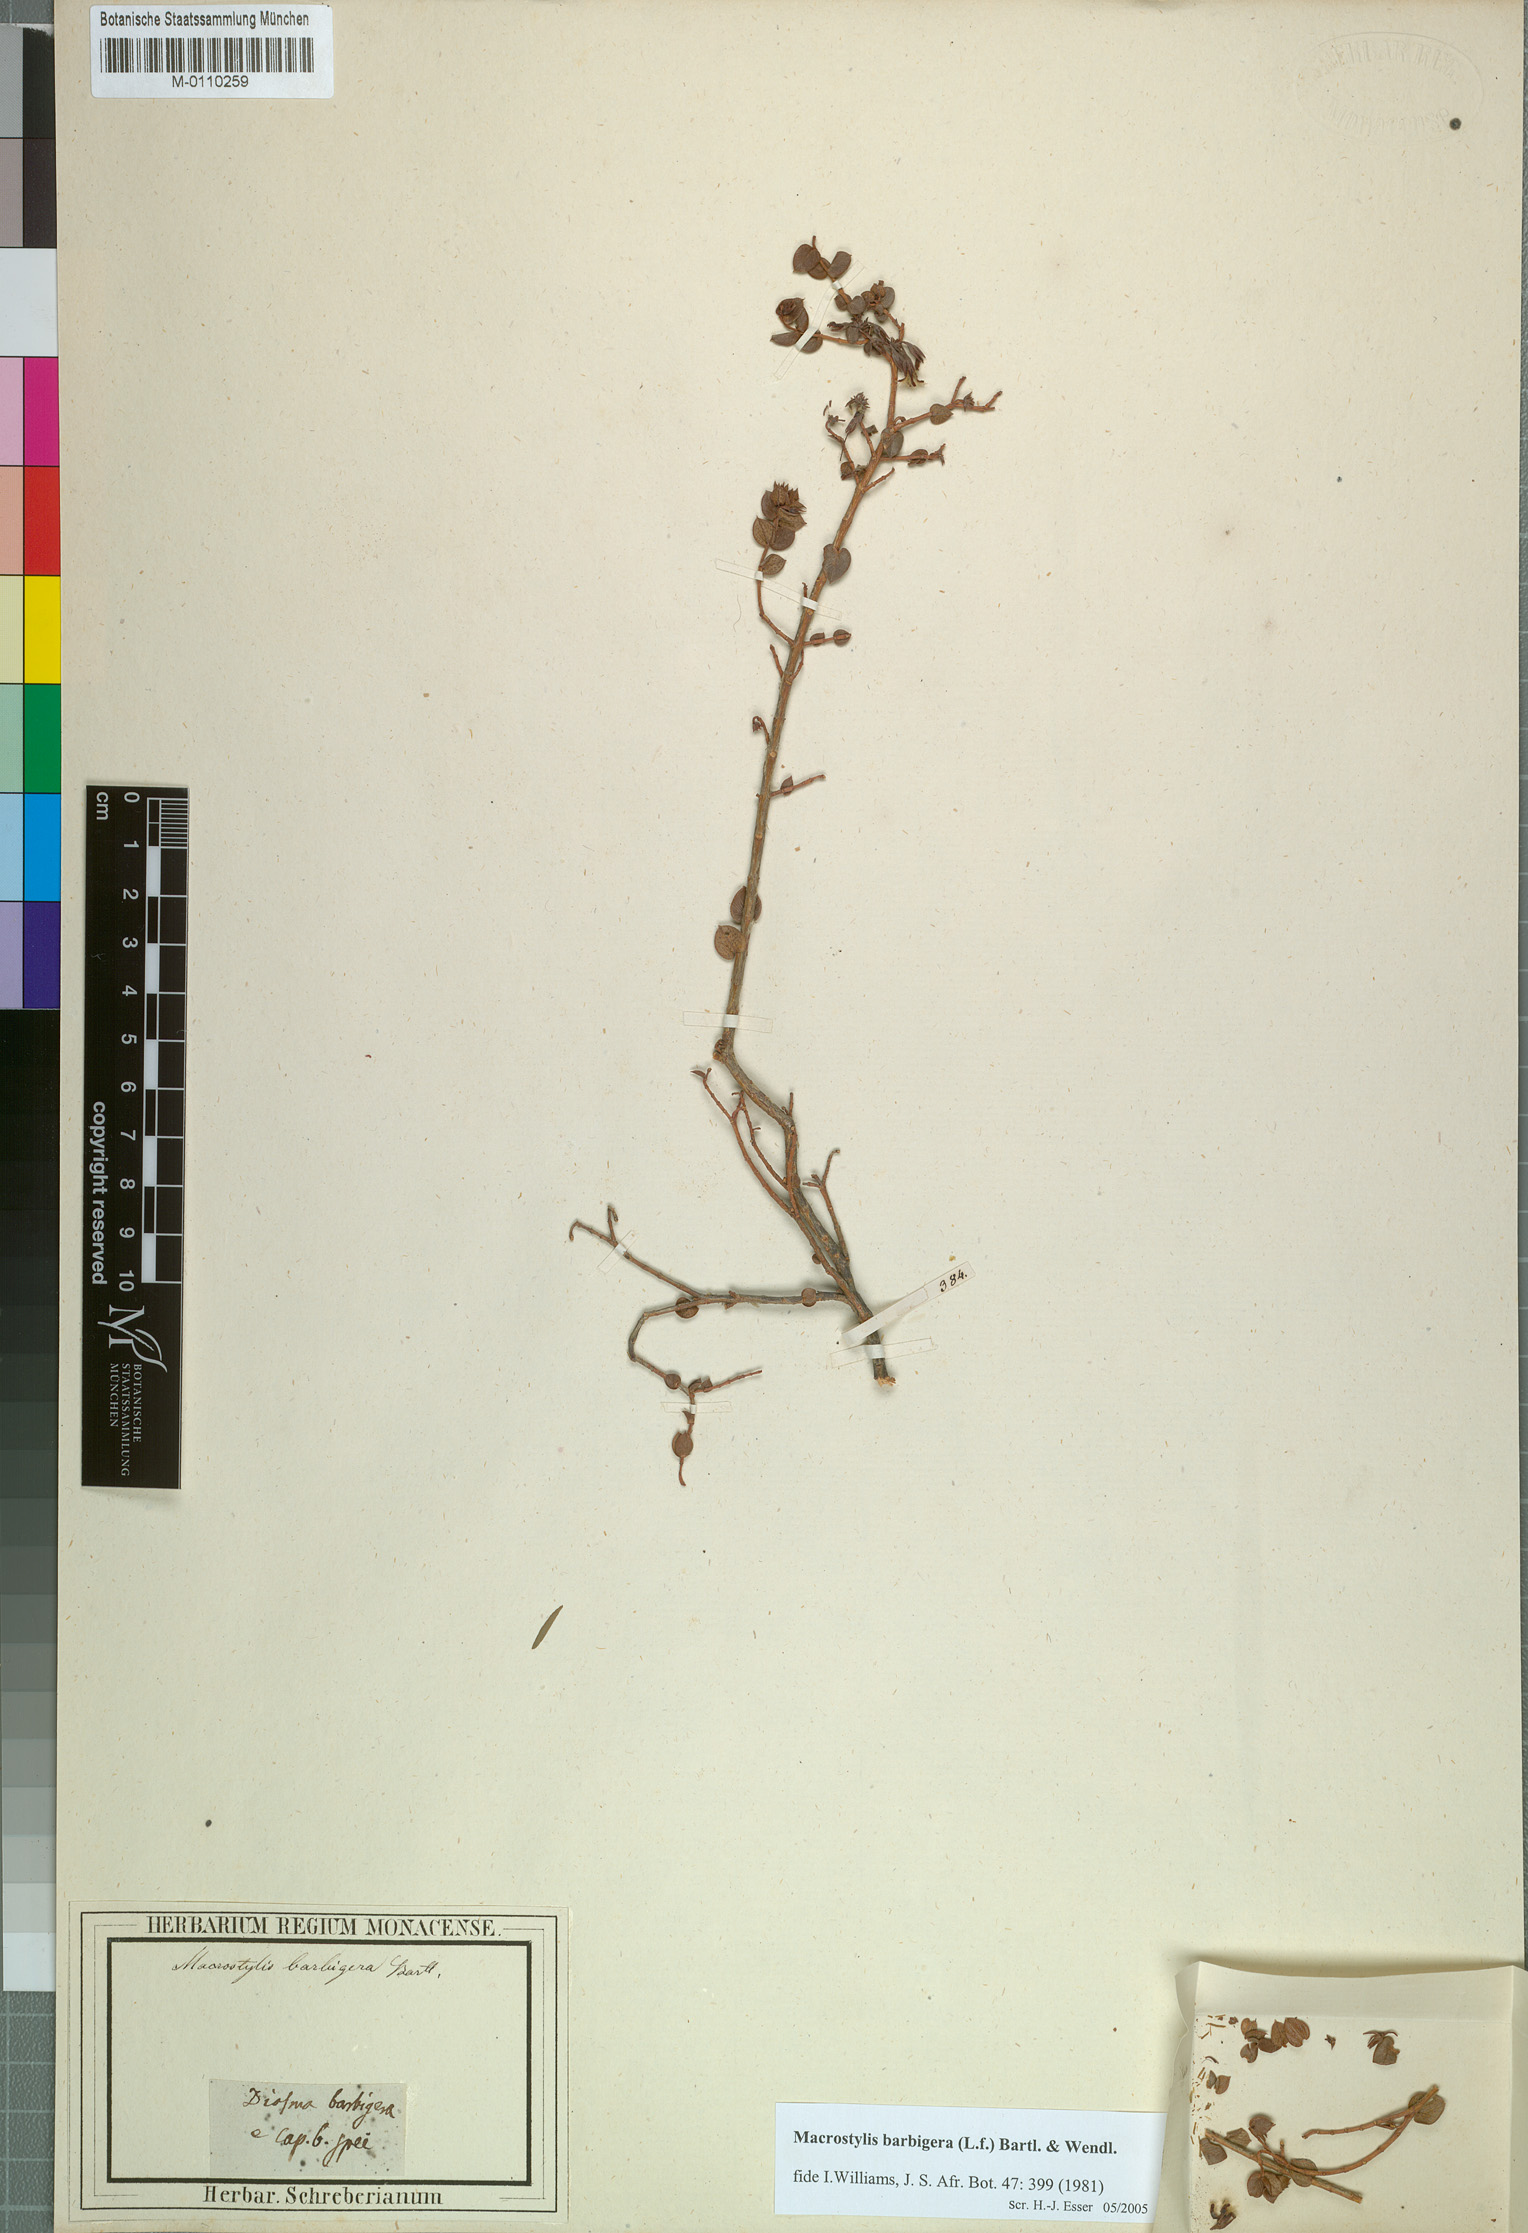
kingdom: Plantae
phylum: Tracheophyta
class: Magnoliopsida
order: Sapindales
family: Rutaceae
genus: Macrostylis
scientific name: Macrostylis barbigera
